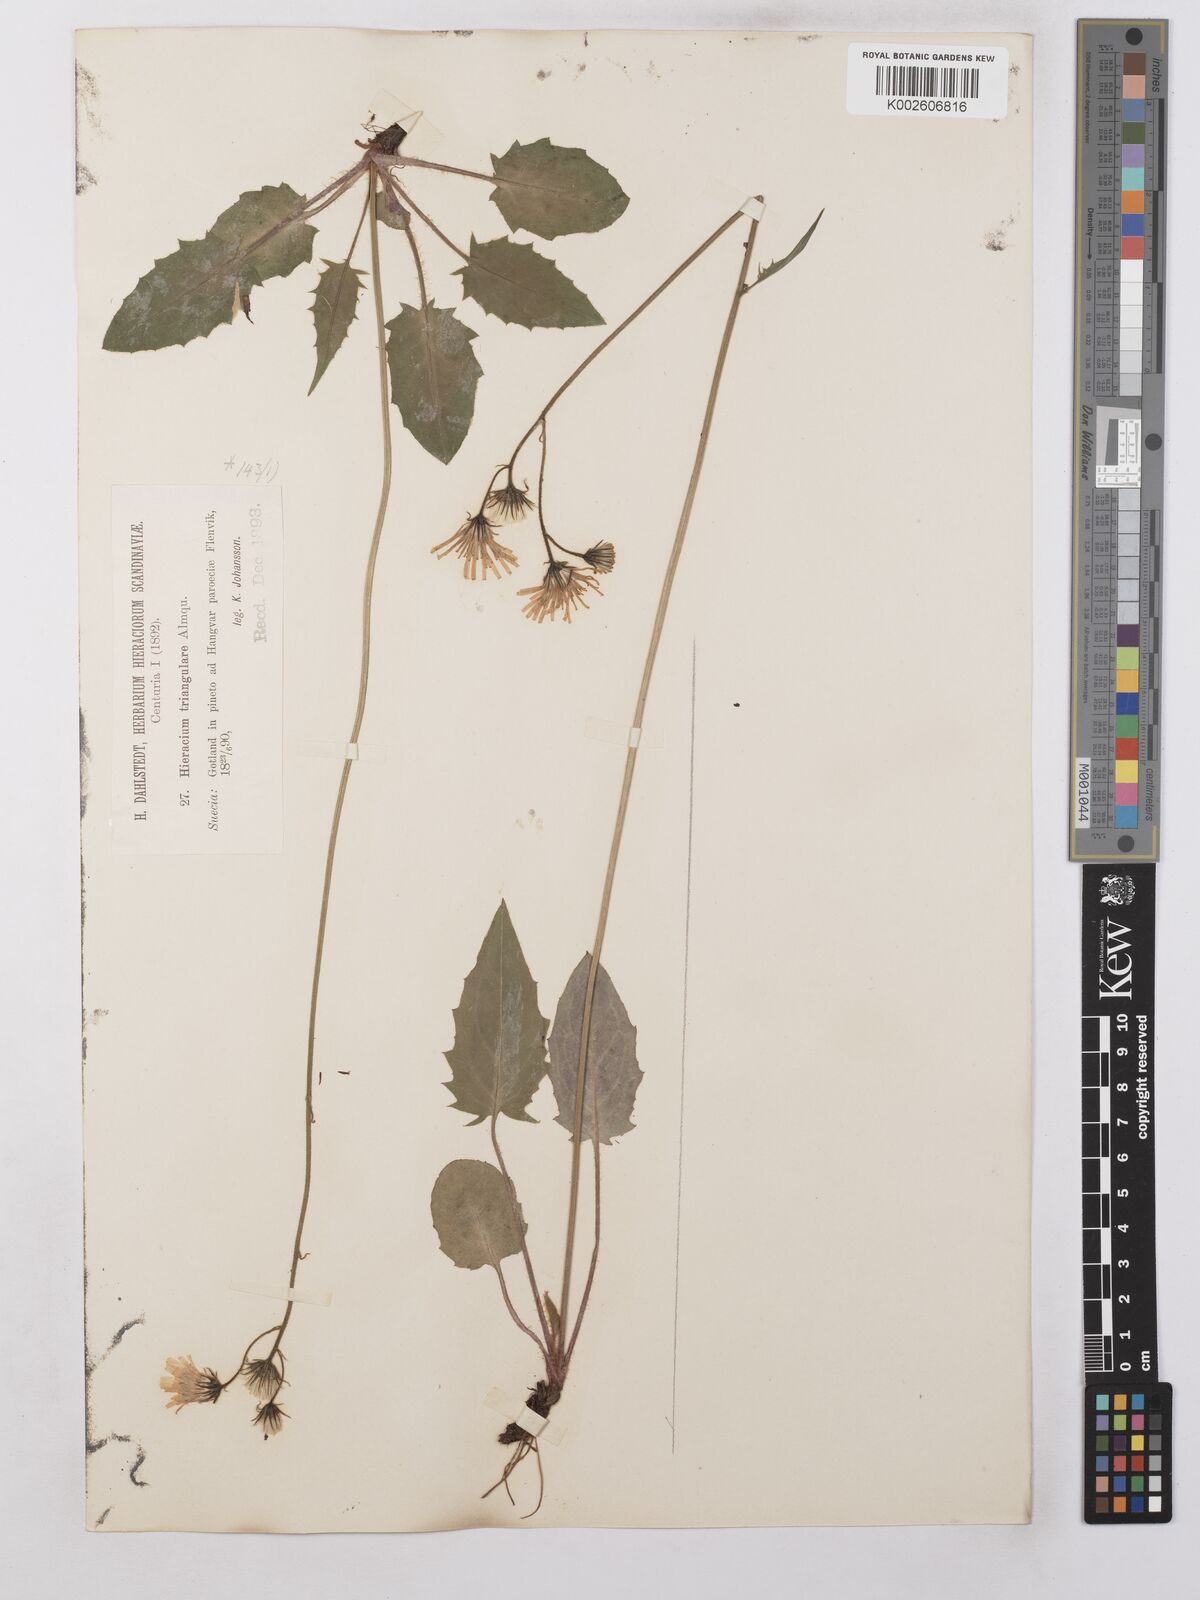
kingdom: Plantae
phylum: Tracheophyta
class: Magnoliopsida
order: Asterales
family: Asteraceae
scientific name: Asteraceae
